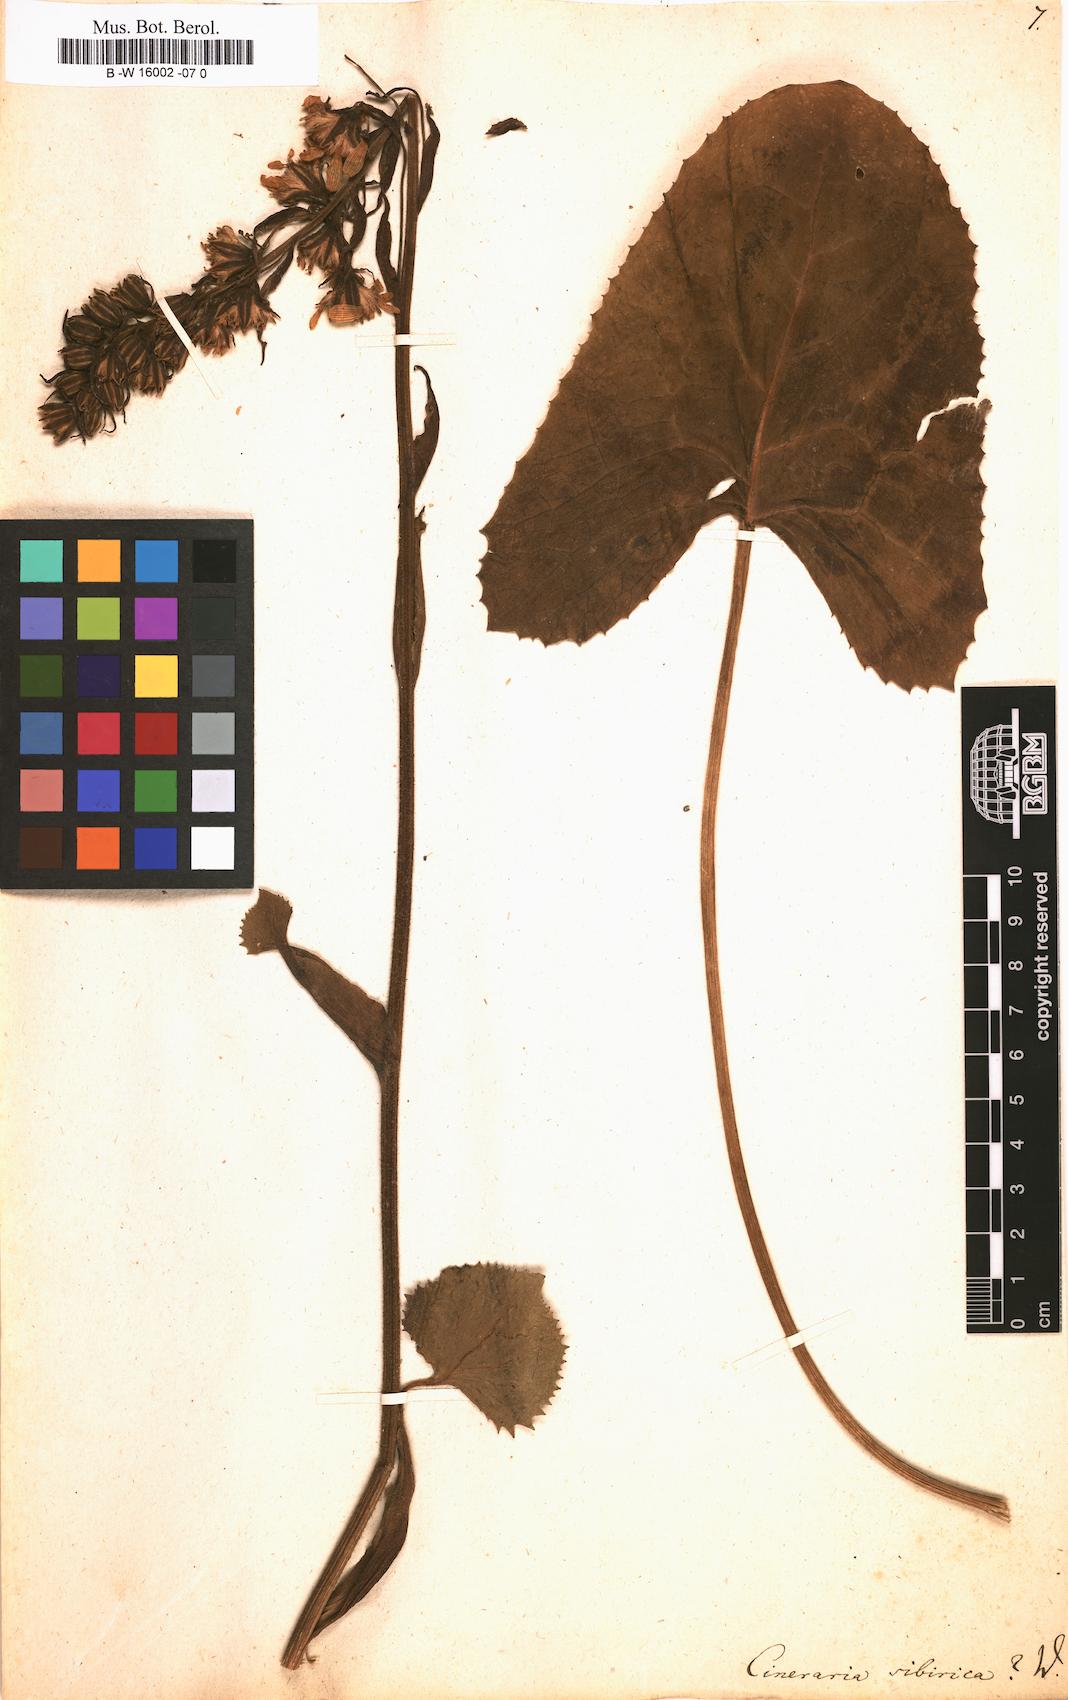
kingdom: Plantae
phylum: Tracheophyta
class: Magnoliopsida
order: Asterales
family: Asteraceae
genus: Ligularia
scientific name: Ligularia sibirica
